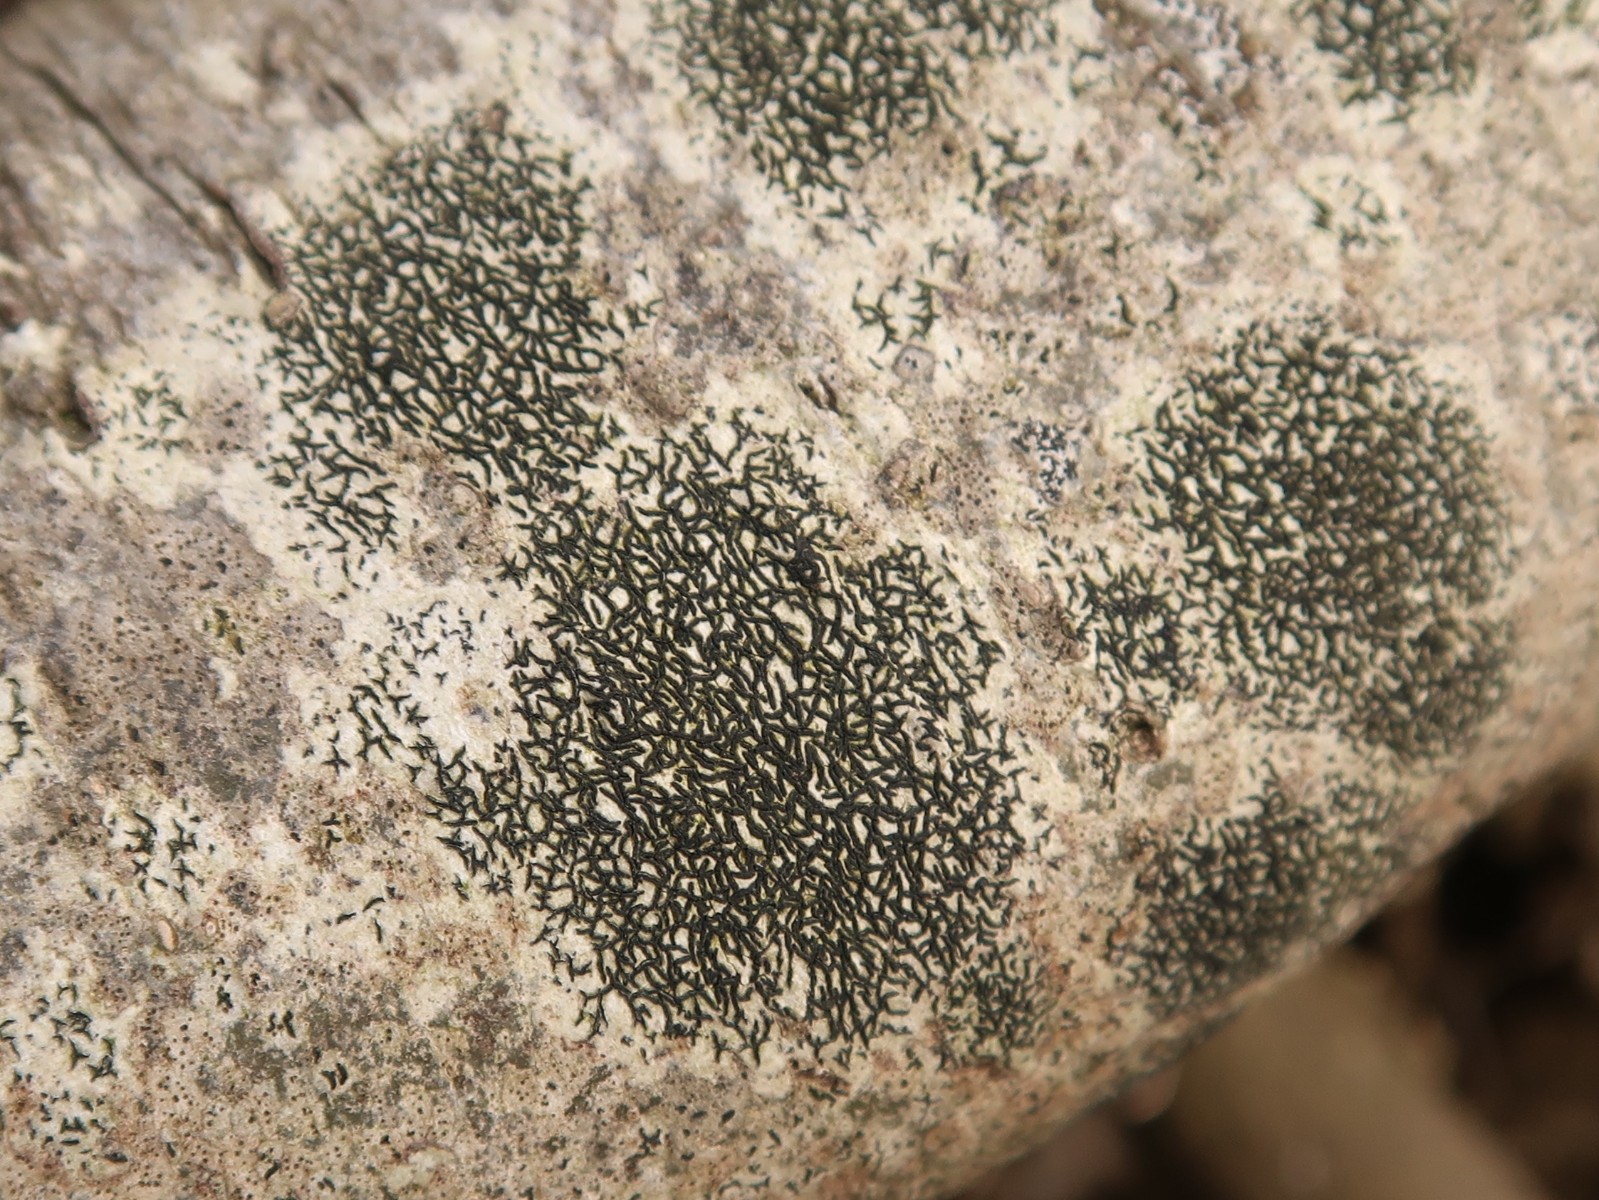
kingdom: Fungi
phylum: Ascomycota
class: Arthoniomycetes
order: Arthoniales
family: Arthoniaceae
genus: Arthonia
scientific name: Arthonia atra
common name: sort bogstavlav
